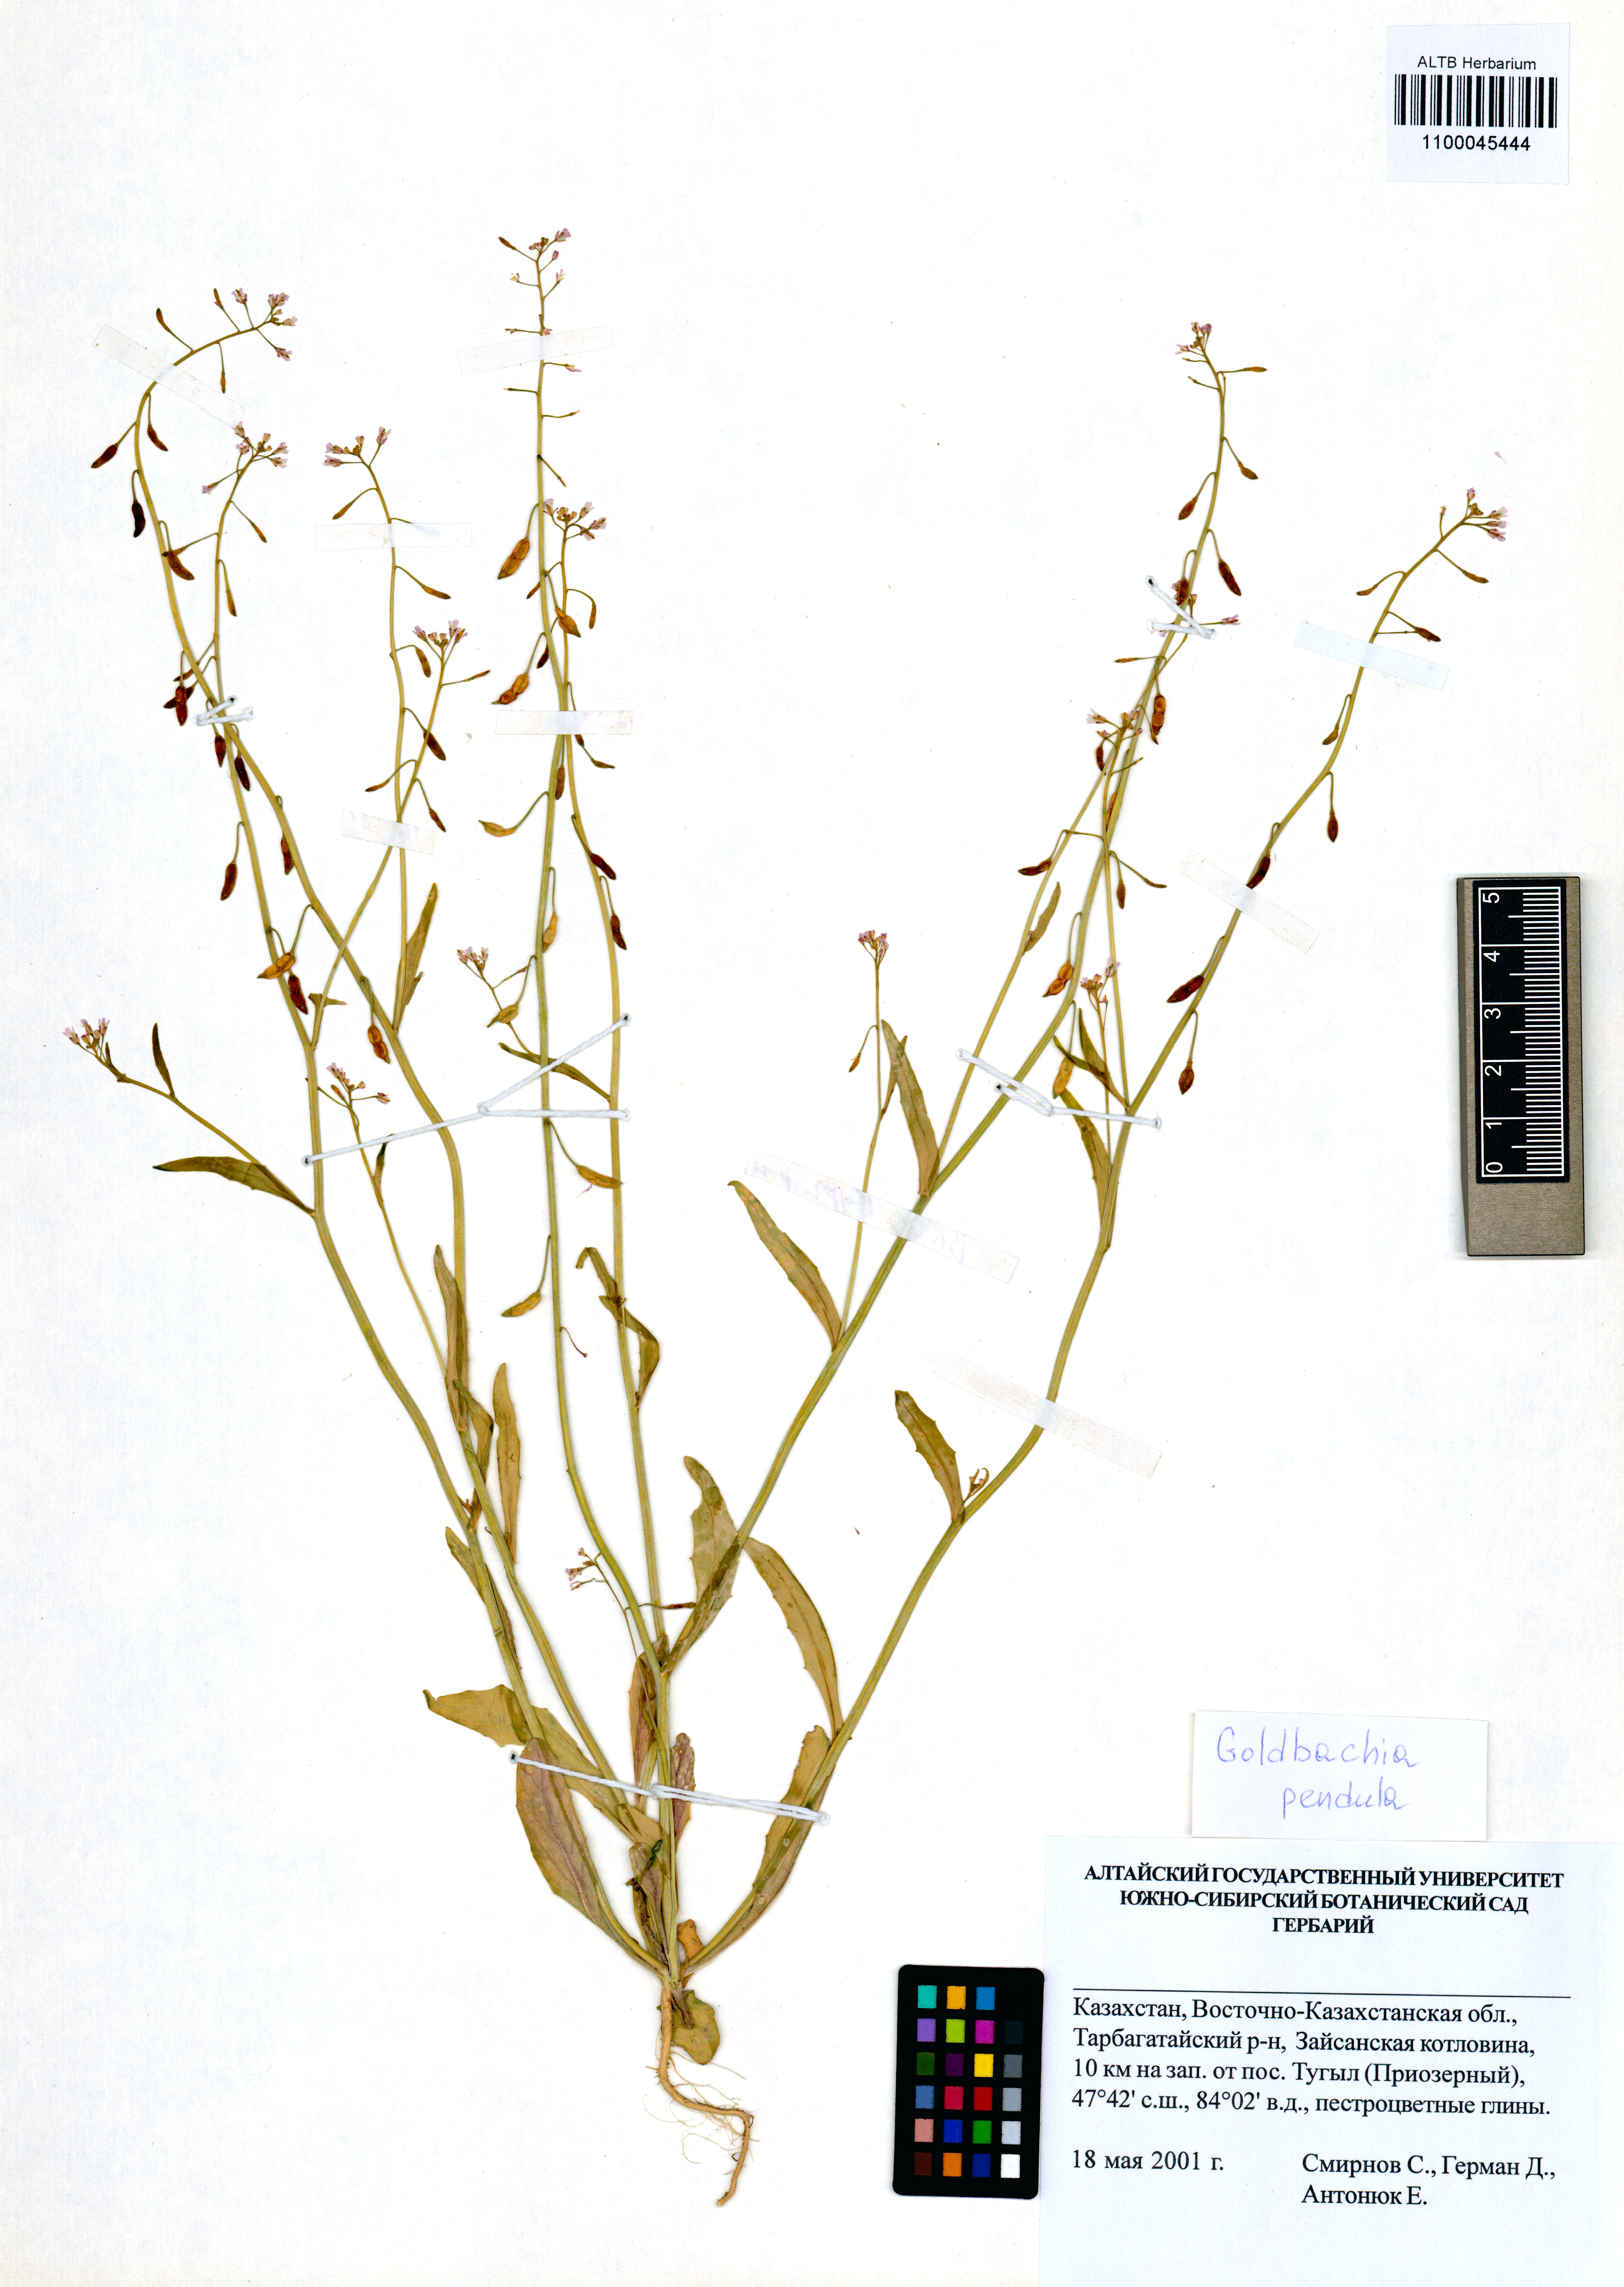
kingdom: Plantae
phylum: Tracheophyta
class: Magnoliopsida
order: Brassicales
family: Brassicaceae
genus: Goldbachia
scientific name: Goldbachia pendula
